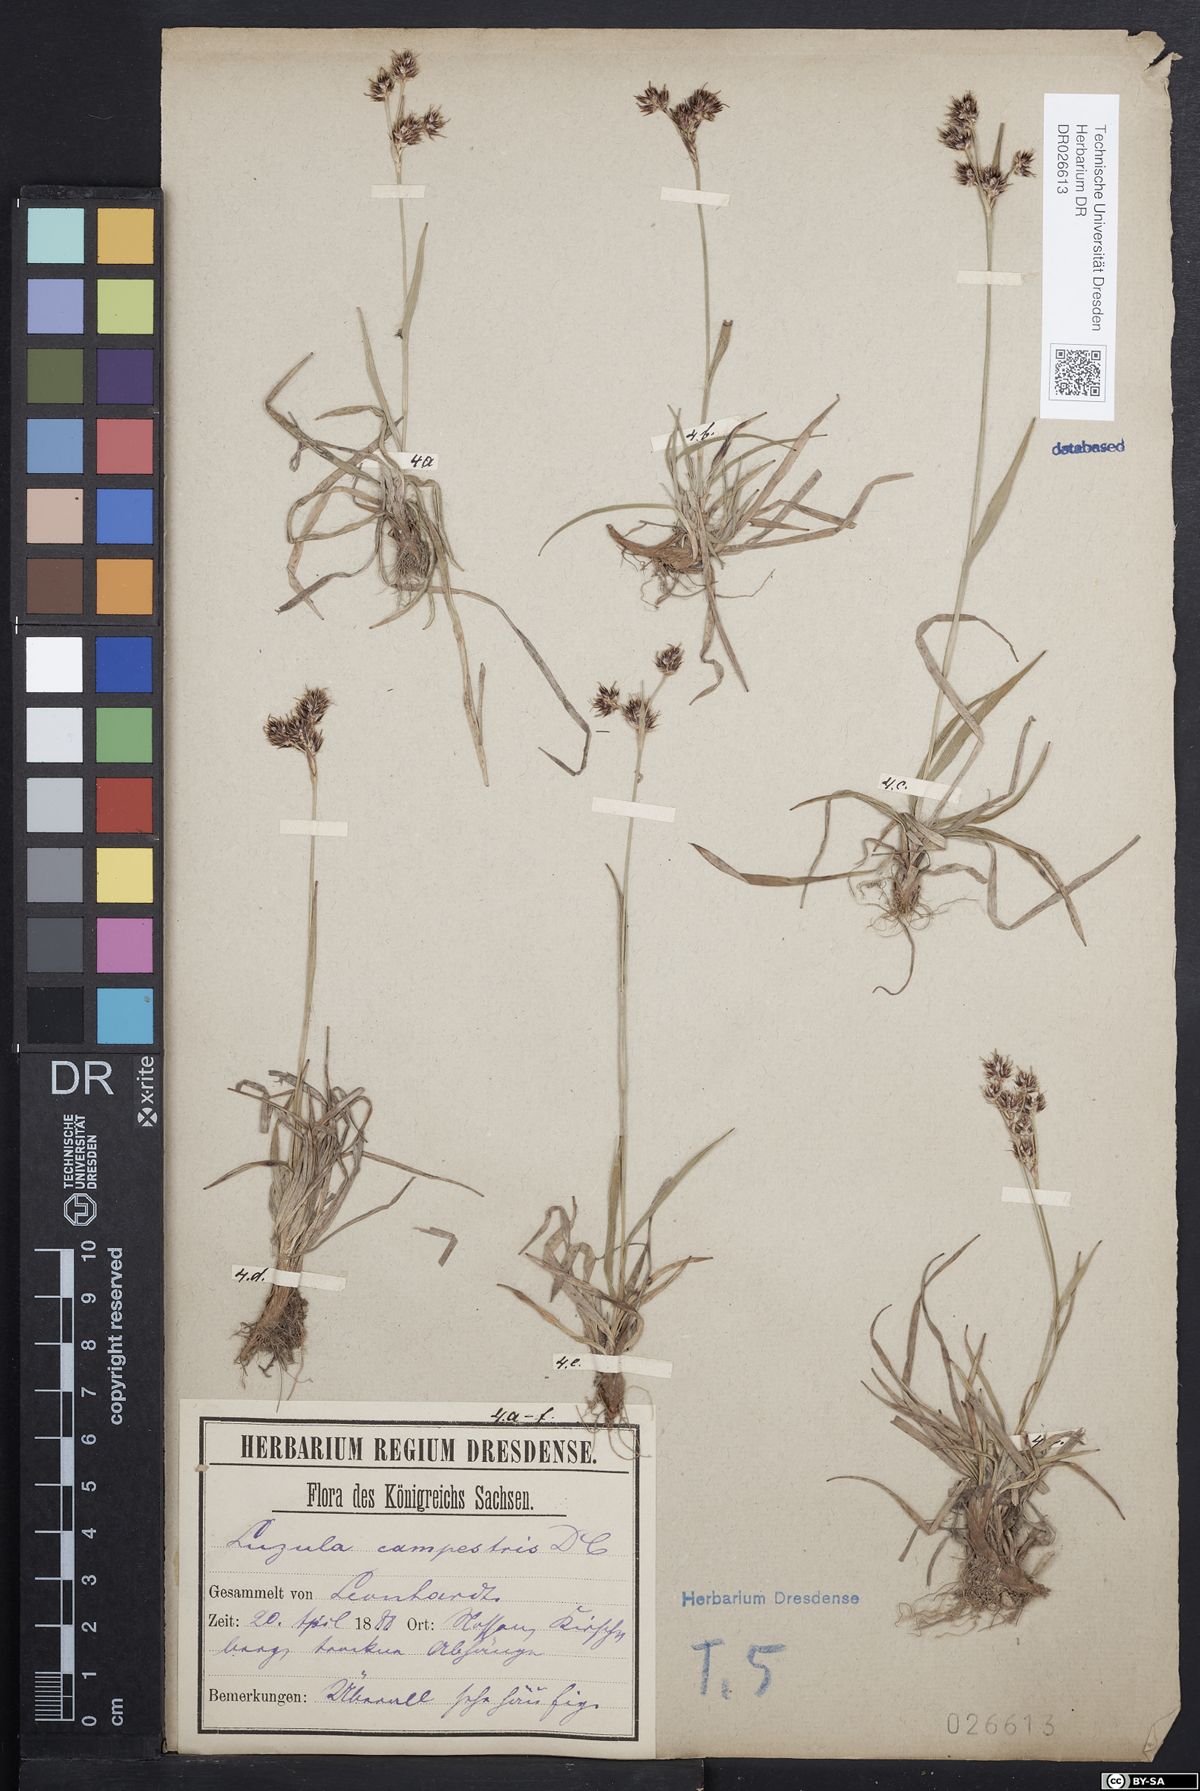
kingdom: Plantae
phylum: Tracheophyta
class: Liliopsida
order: Poales
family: Juncaceae
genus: Luzula
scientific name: Luzula campestris
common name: Field wood-rush
